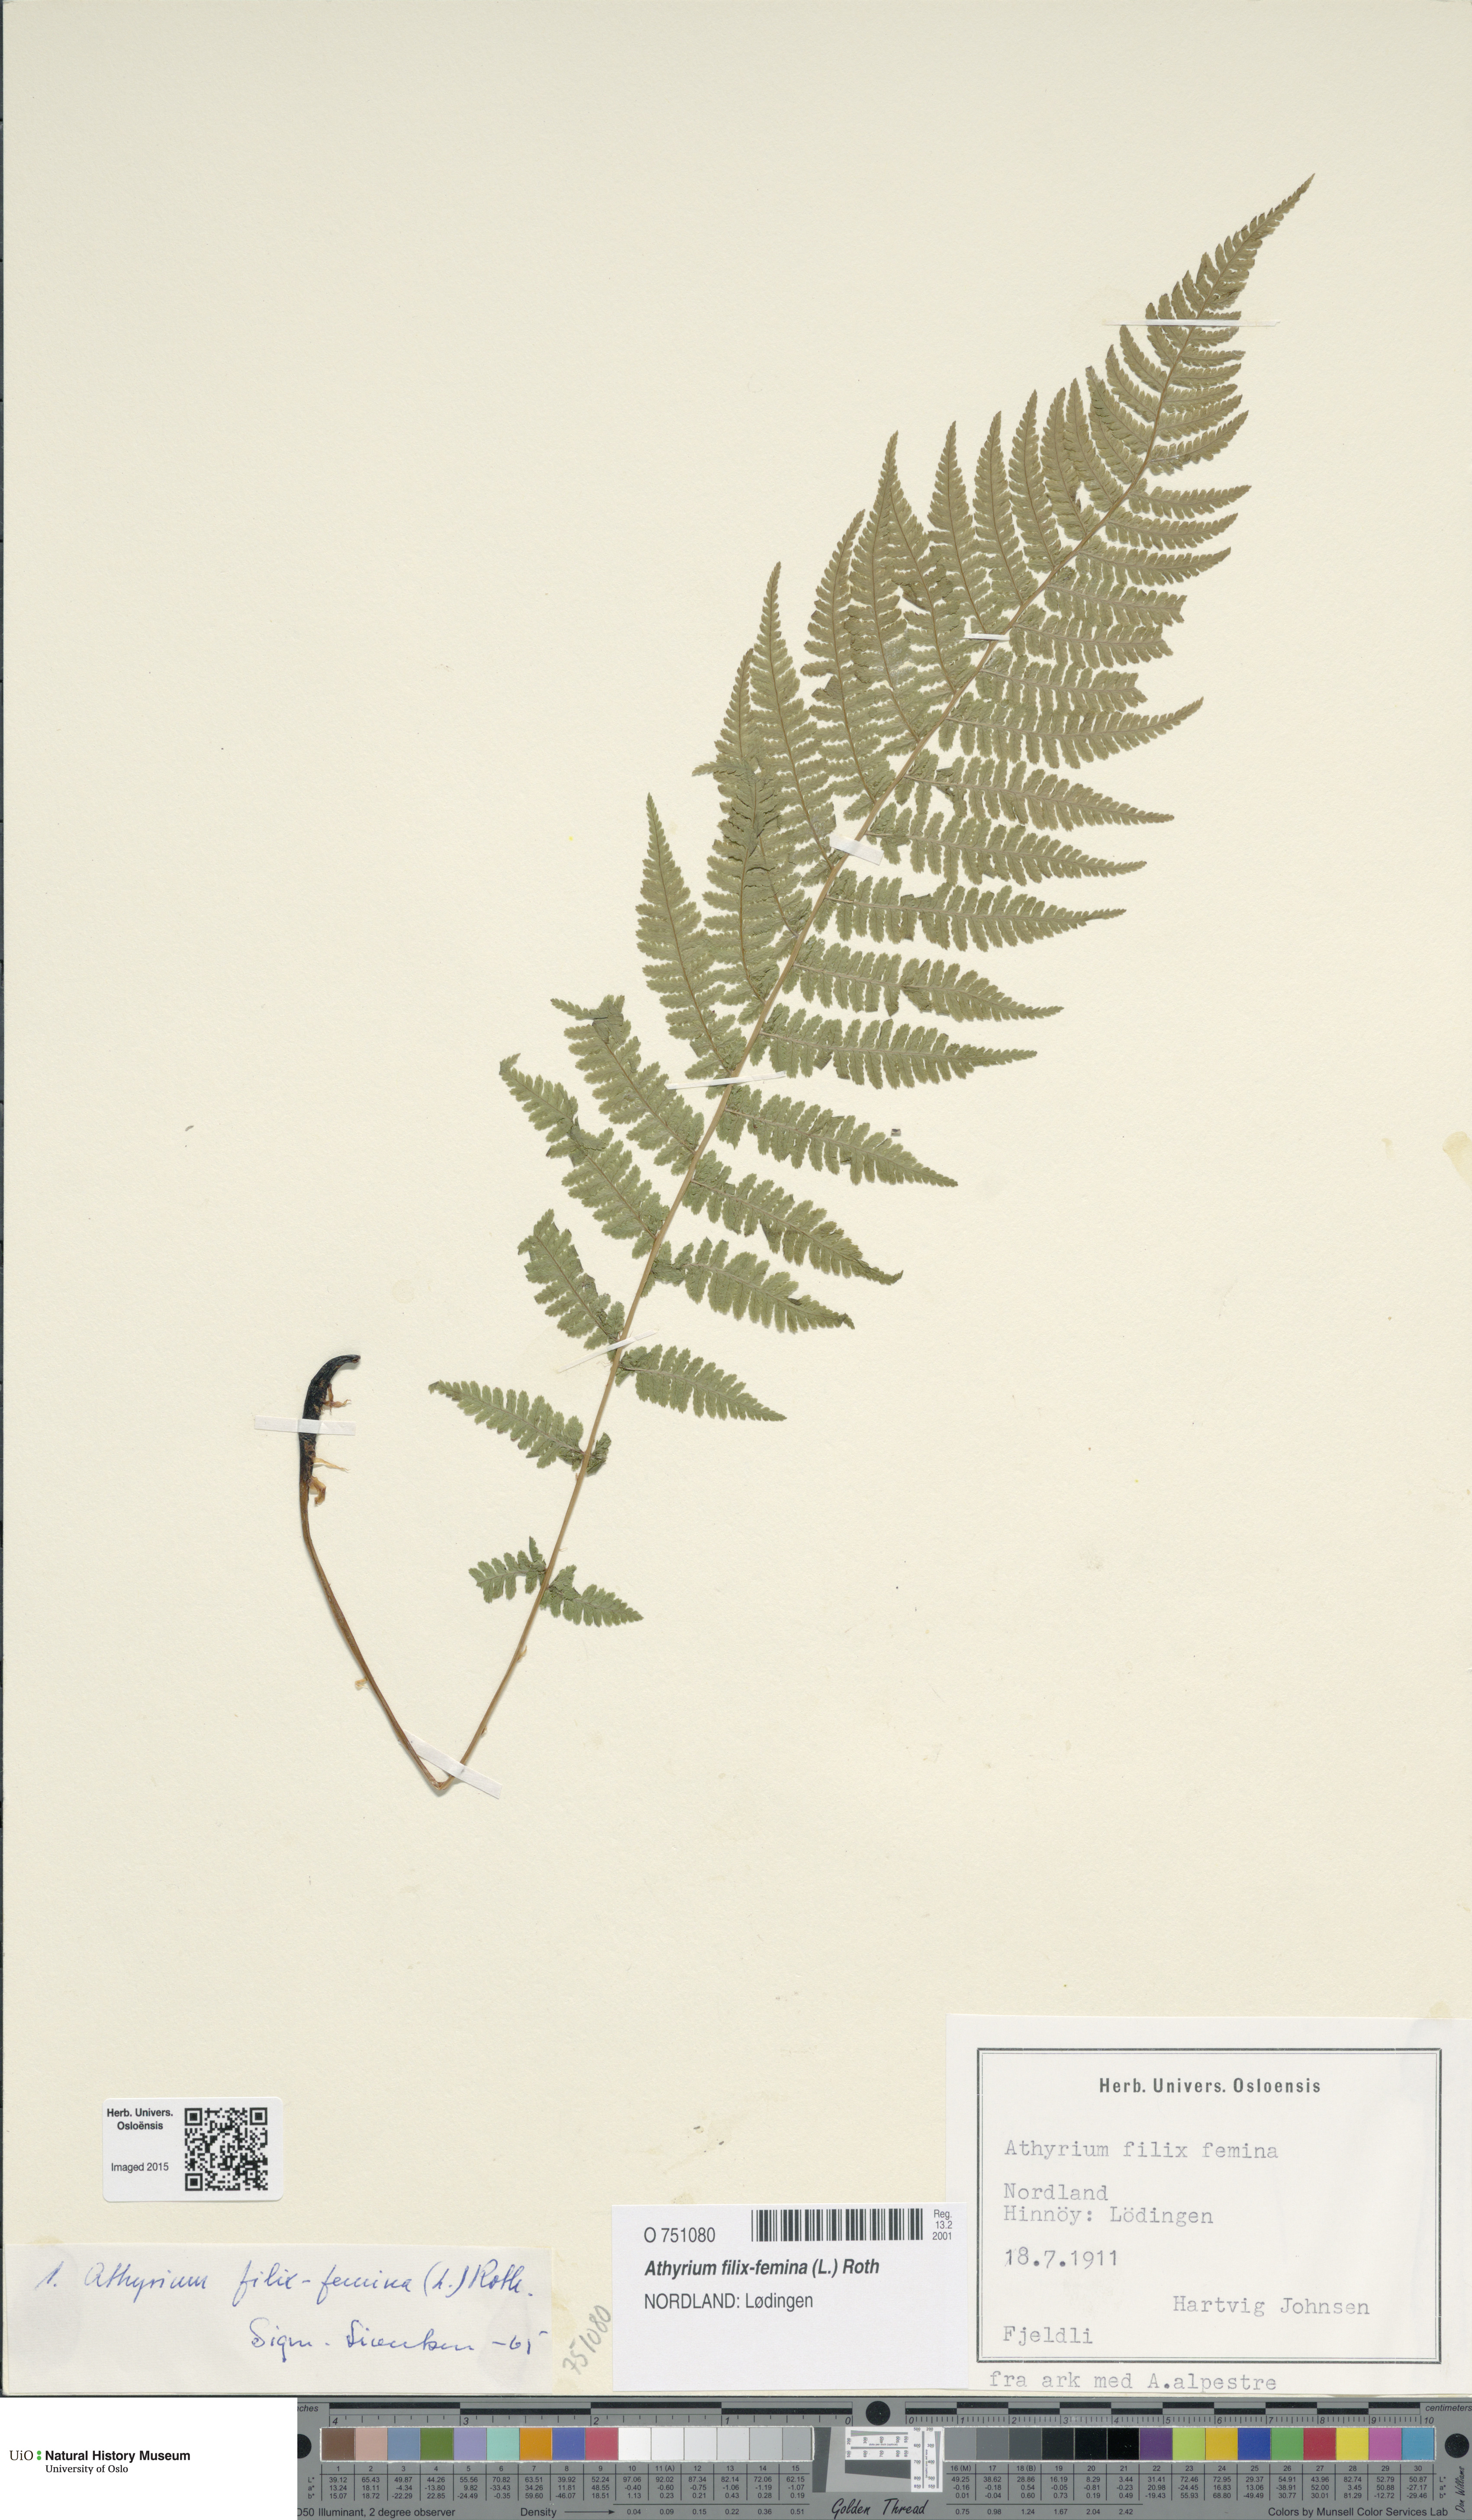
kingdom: Plantae
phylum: Tracheophyta
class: Polypodiopsida
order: Polypodiales
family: Athyriaceae
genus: Athyrium
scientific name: Athyrium filix-femina
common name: Lady fern
